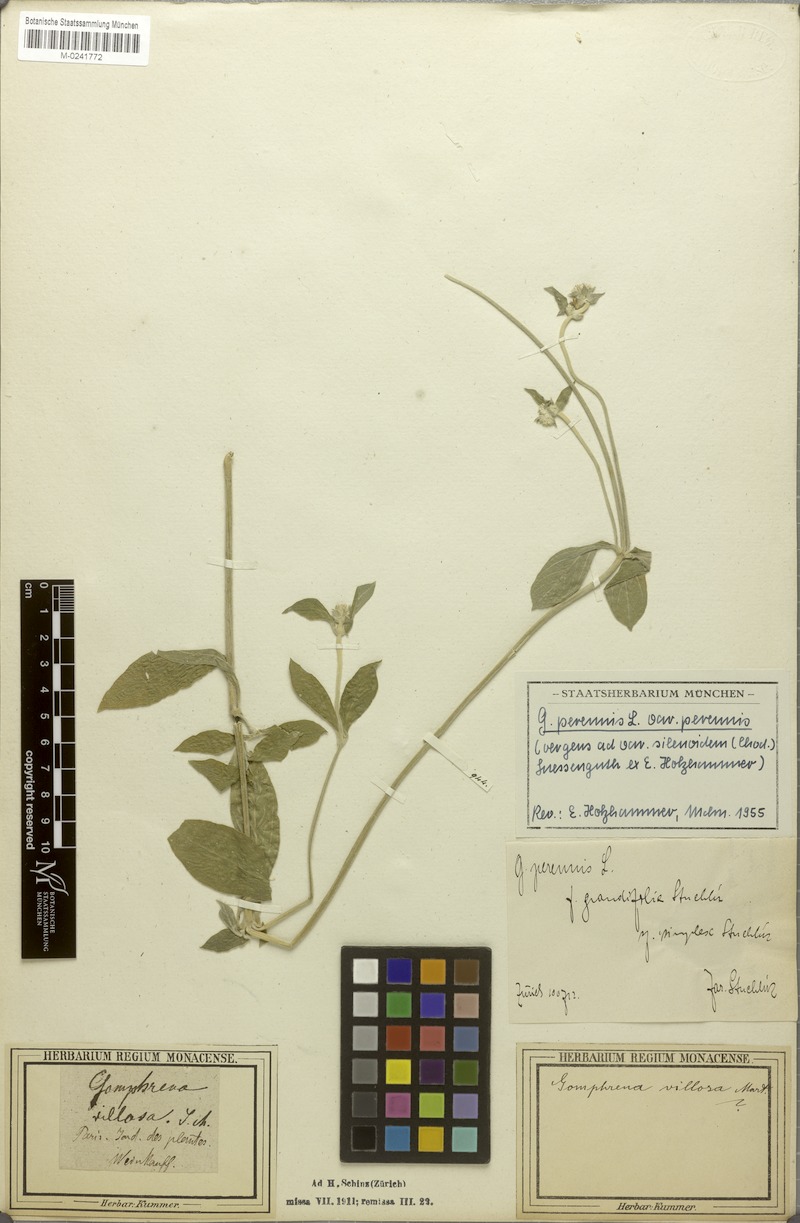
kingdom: Plantae
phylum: Tracheophyta
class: Magnoliopsida
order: Caryophyllales
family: Amaranthaceae
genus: Gomphrena
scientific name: Gomphrena perennis
